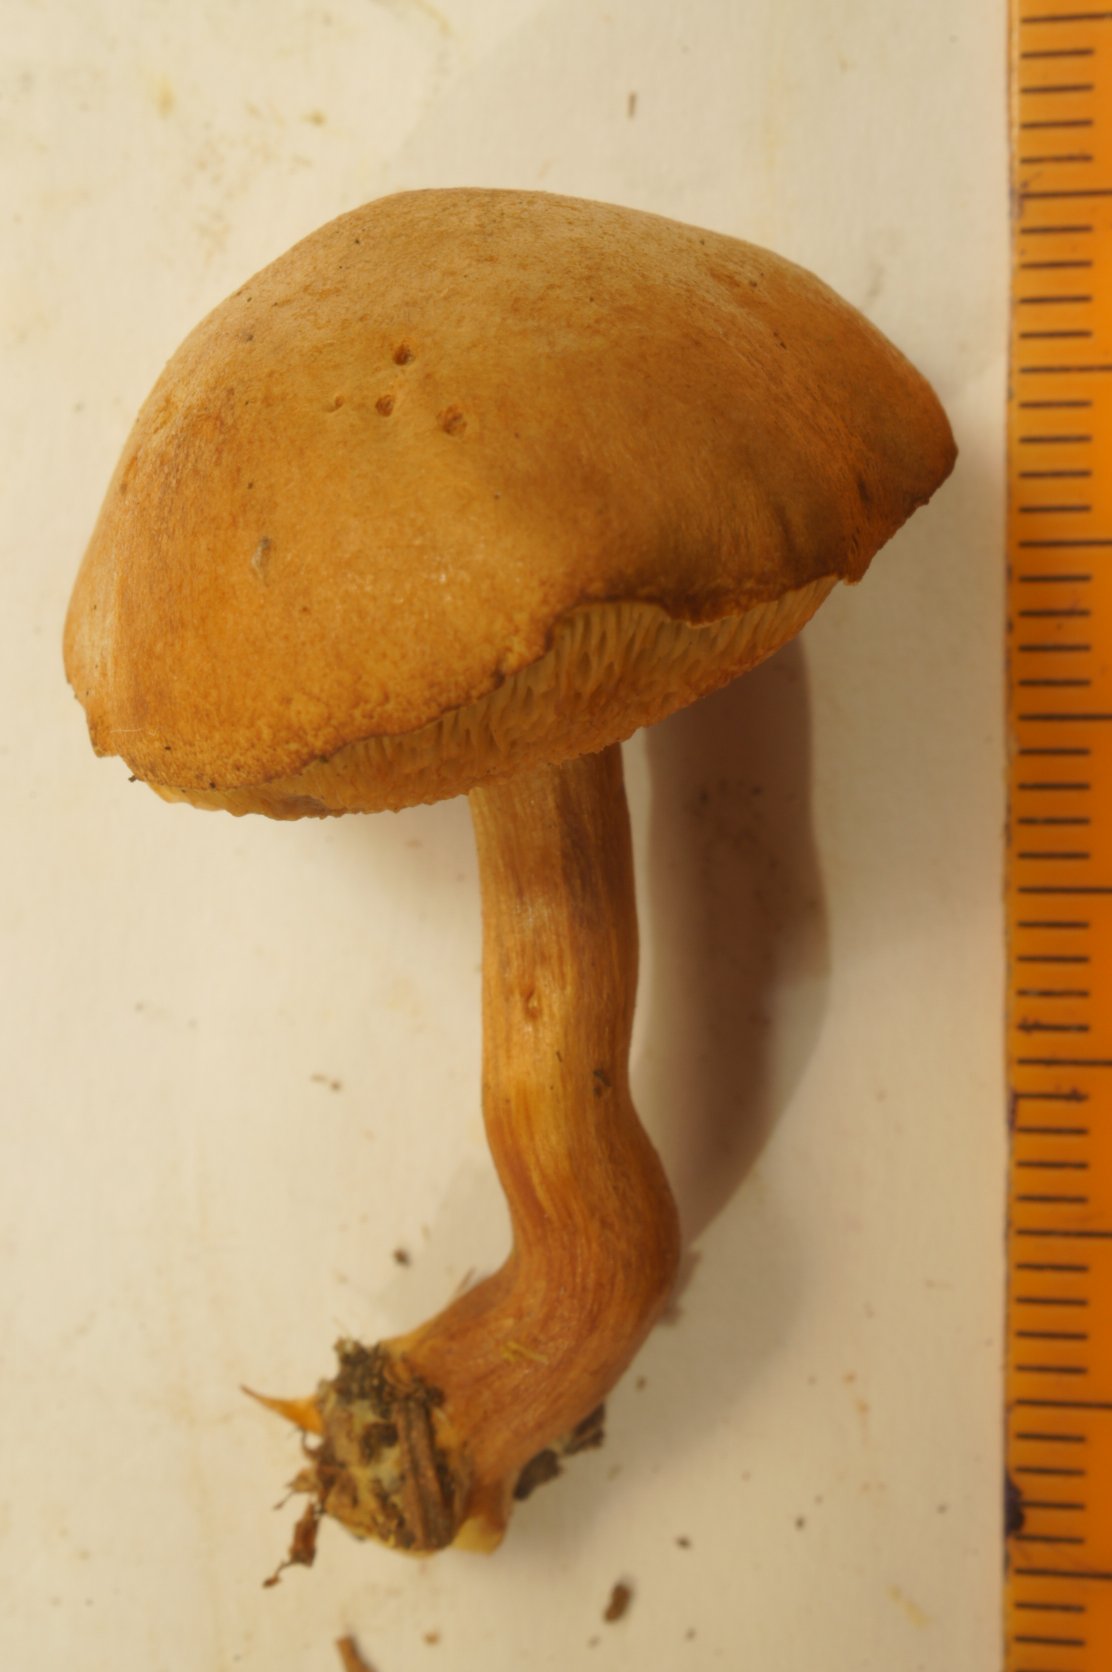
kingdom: Fungi
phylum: Basidiomycota
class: Agaricomycetes
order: Boletales
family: Boletaceae
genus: Chalciporus
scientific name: Chalciporus piperatus
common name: peberrørhat
